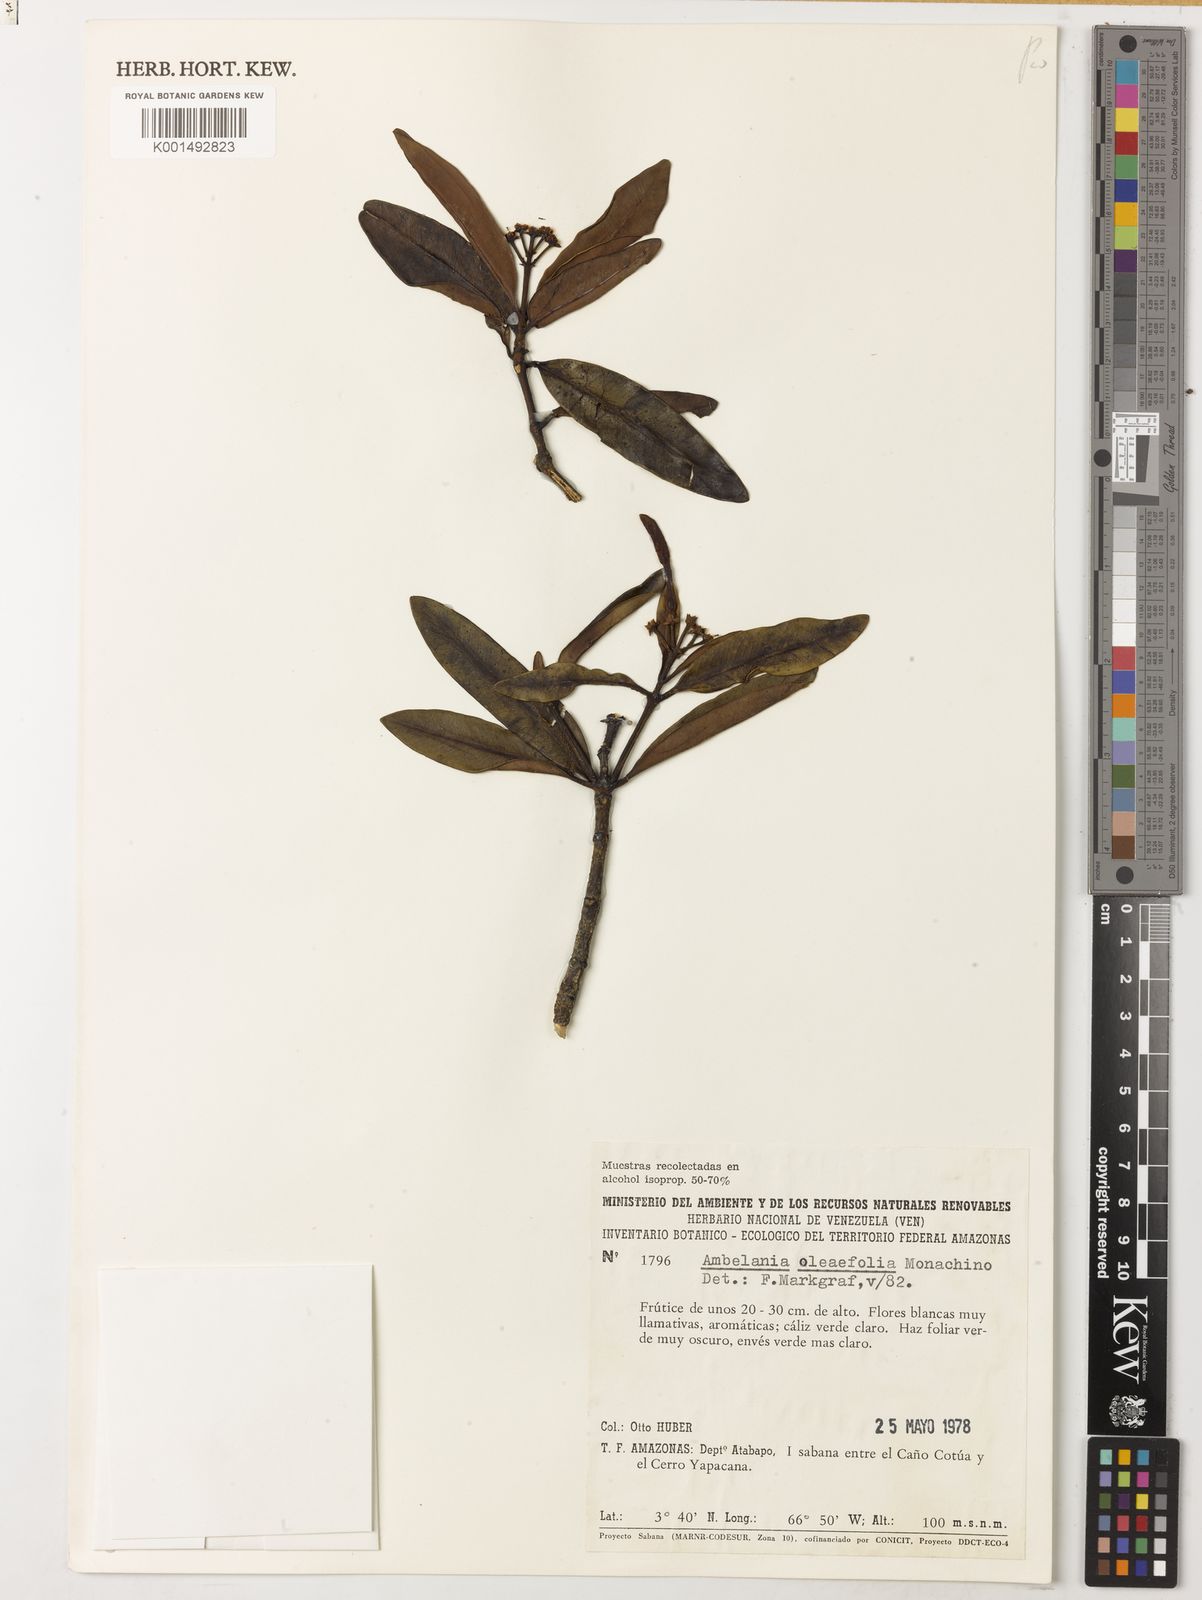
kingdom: Plantae
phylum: Tracheophyta
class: Magnoliopsida
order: Gentianales
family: Apocynaceae
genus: Spongiosperma
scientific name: Spongiosperma riparium
